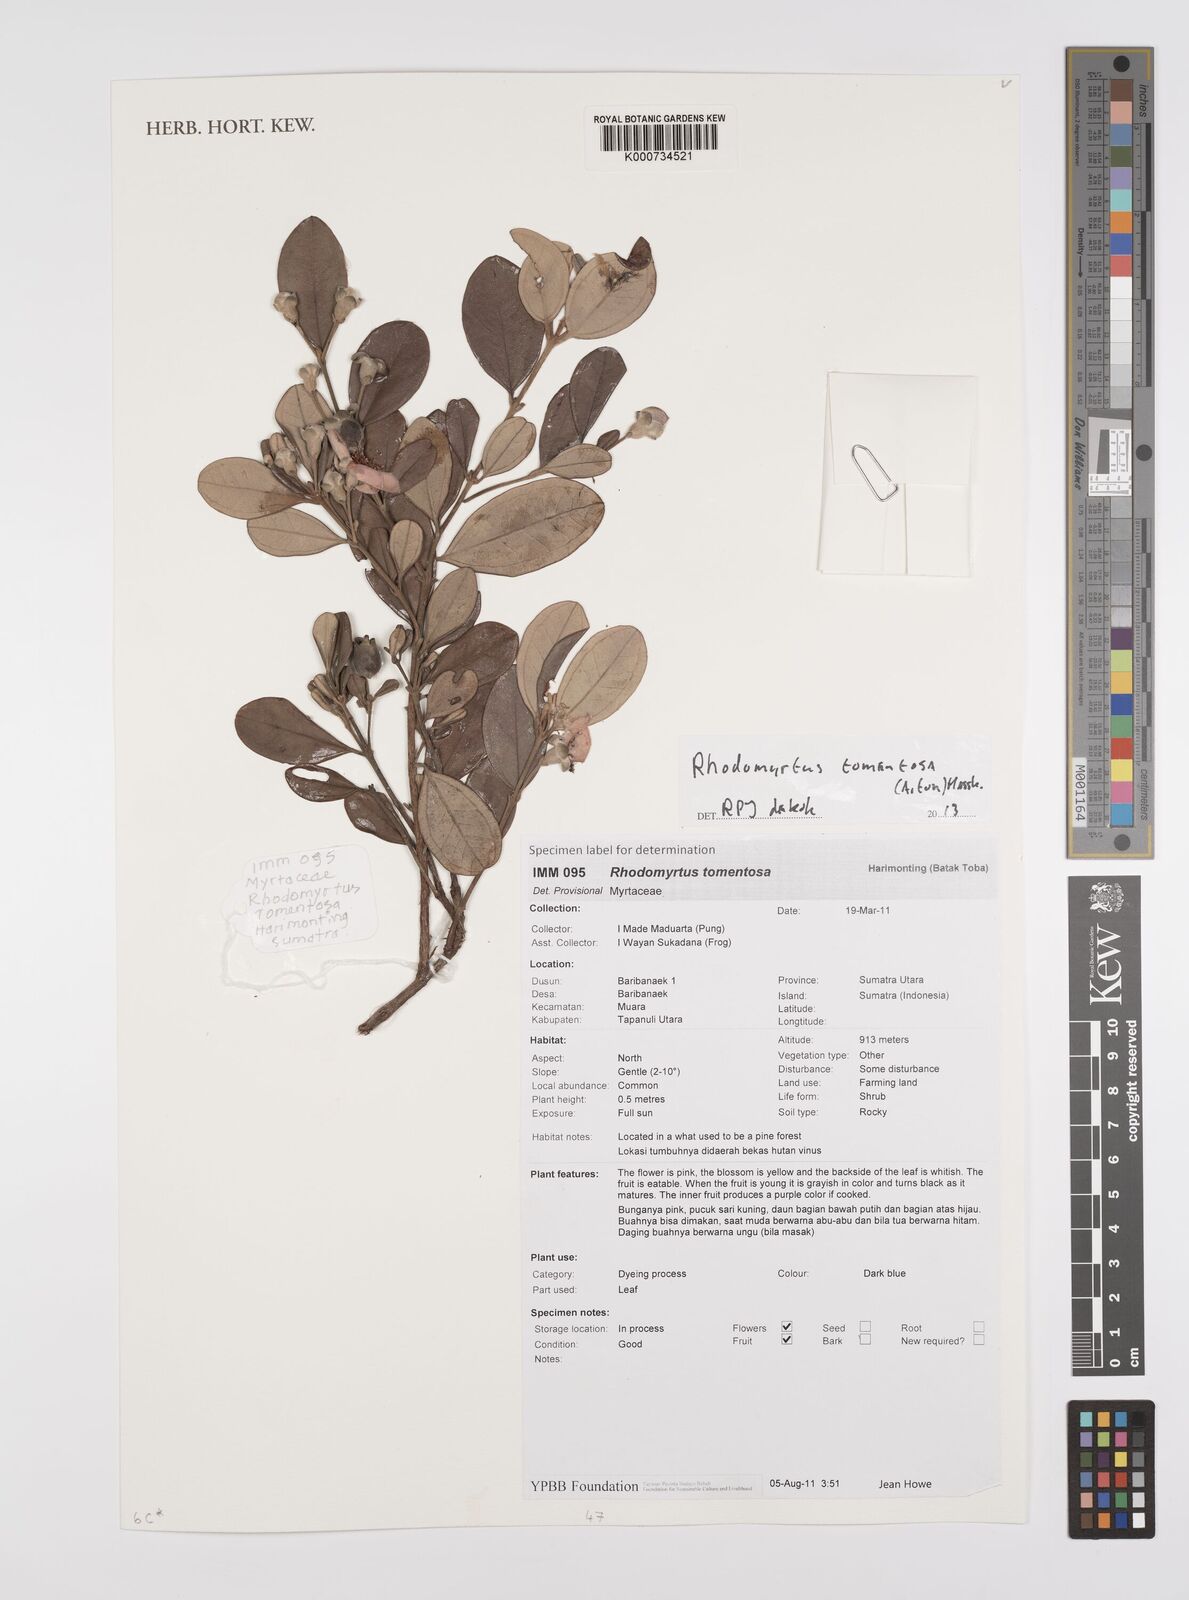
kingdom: Plantae
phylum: Tracheophyta
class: Magnoliopsida
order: Myrtales
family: Myrtaceae
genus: Rhodomyrtus
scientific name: Rhodomyrtus tomentosa
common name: Rose myrtle
